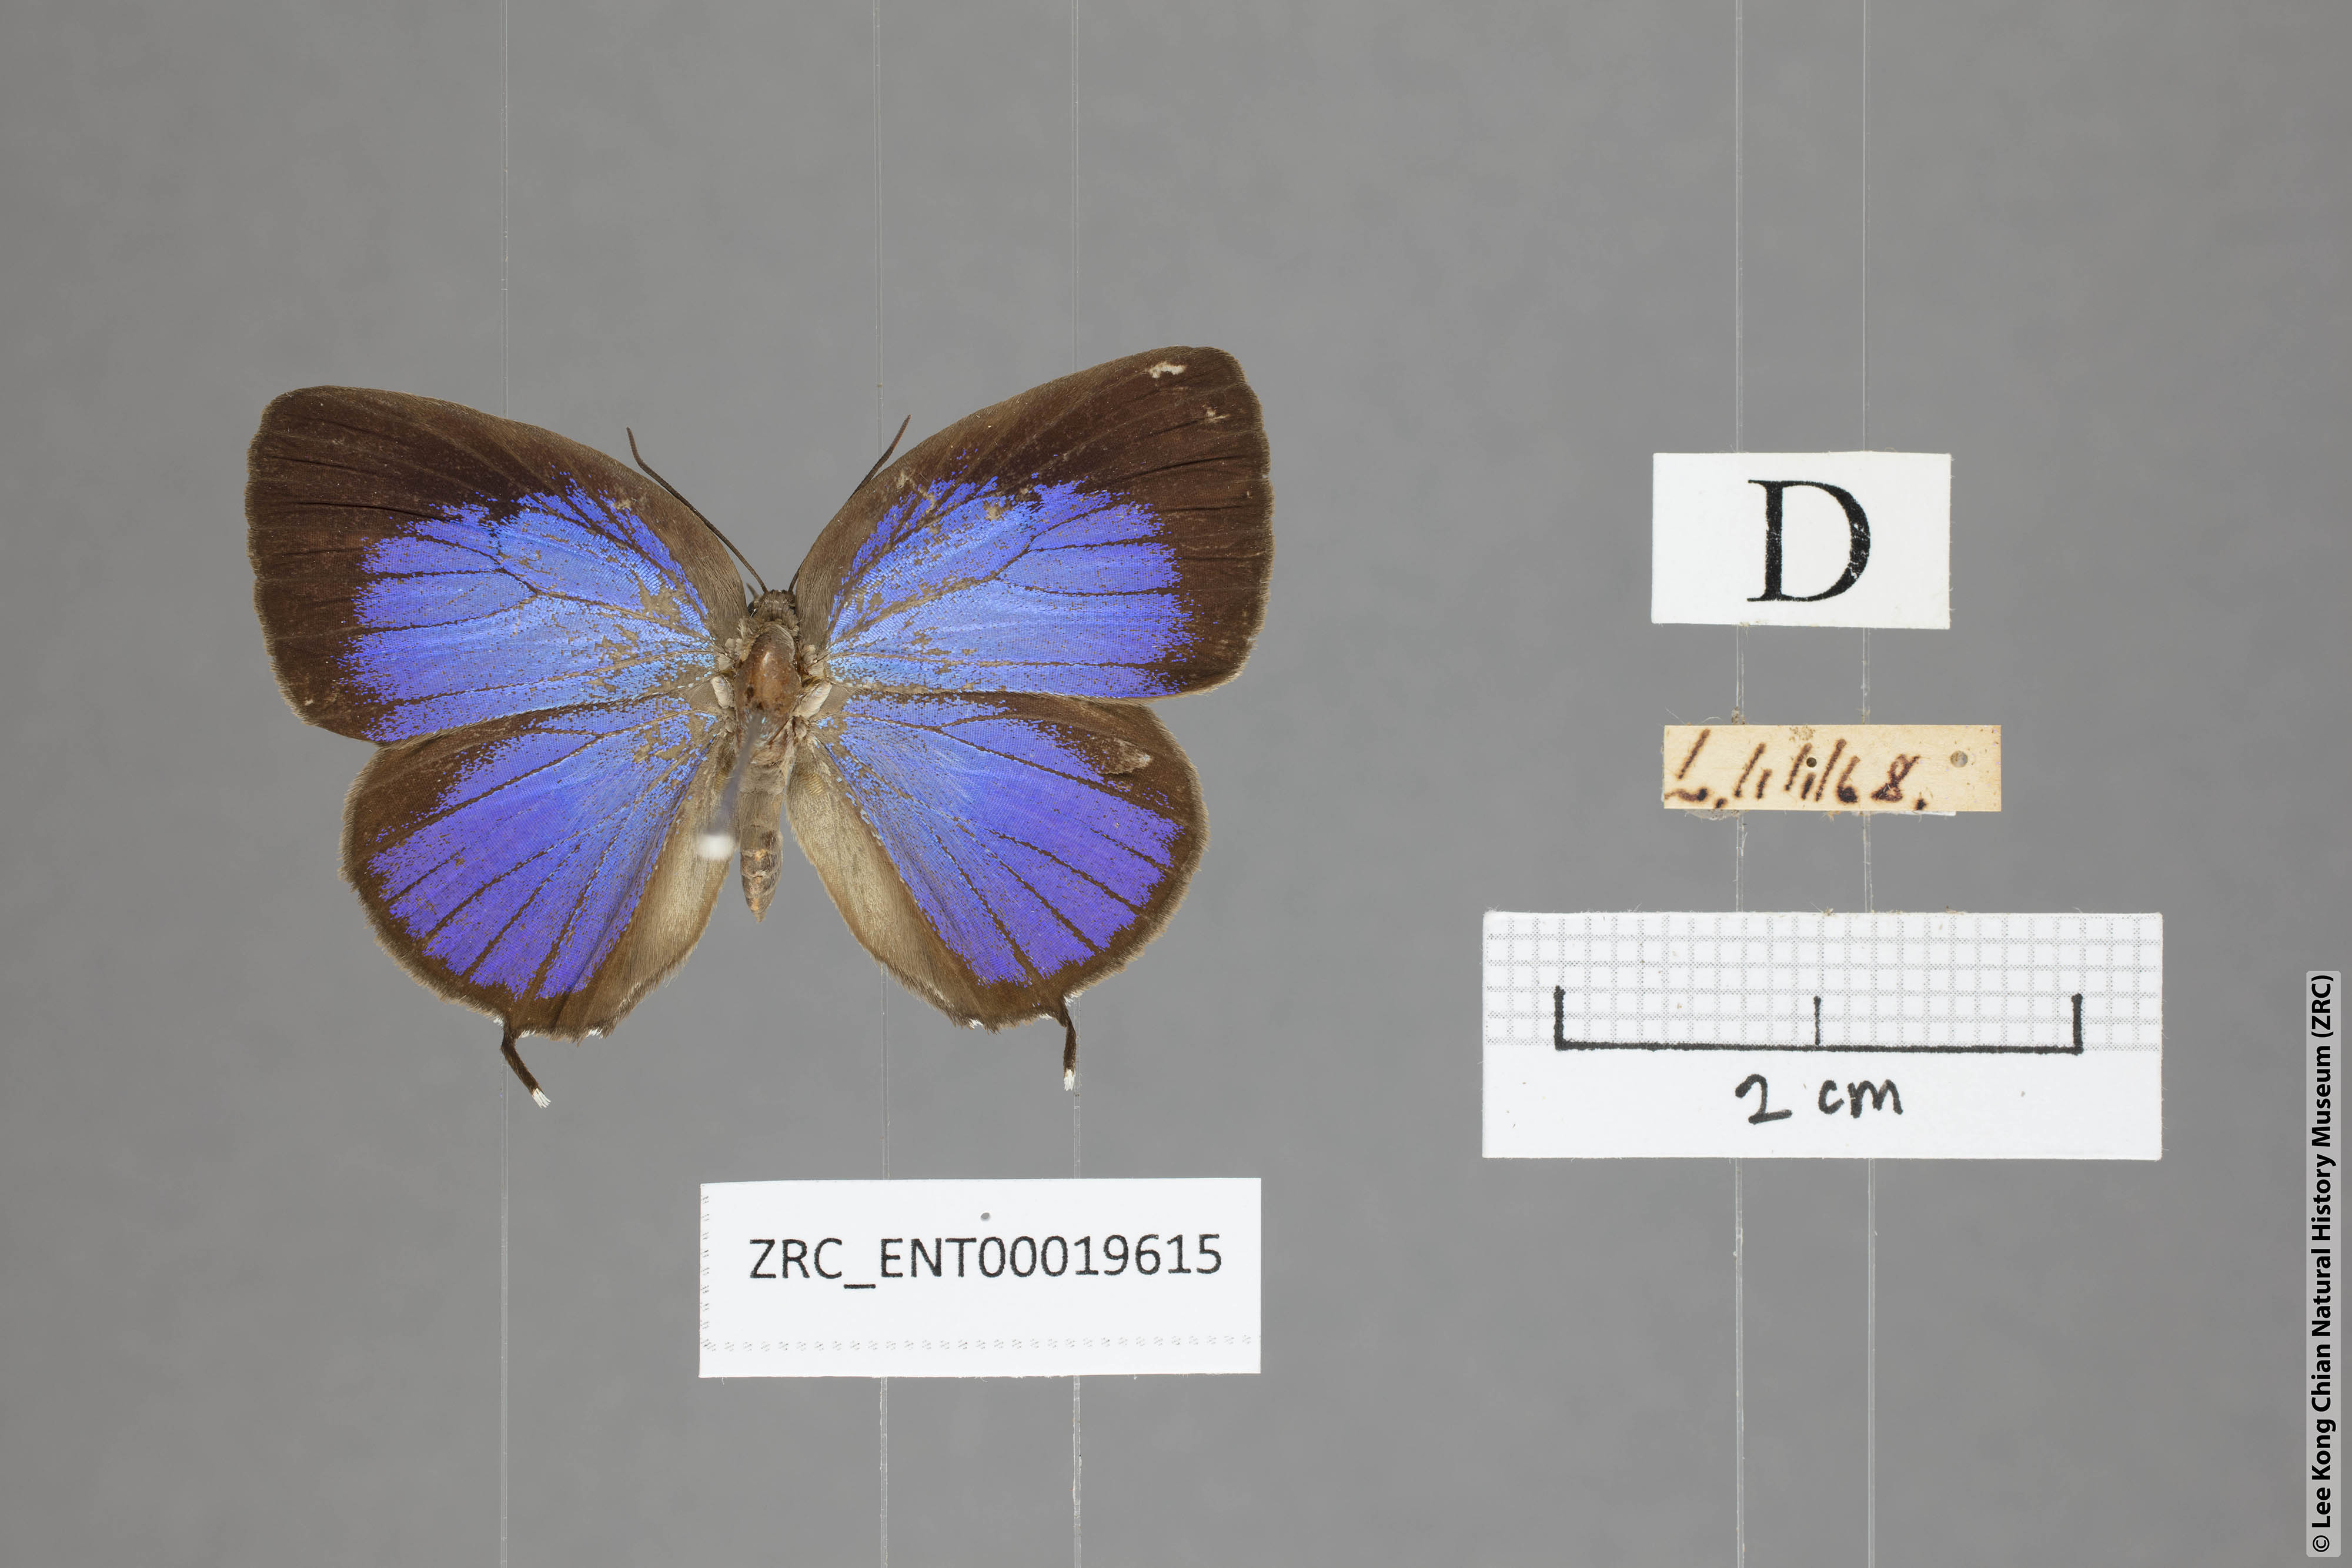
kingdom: Animalia
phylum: Arthropoda
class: Insecta
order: Lepidoptera
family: Lycaenidae
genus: Arhopala
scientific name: Arhopala atosia
